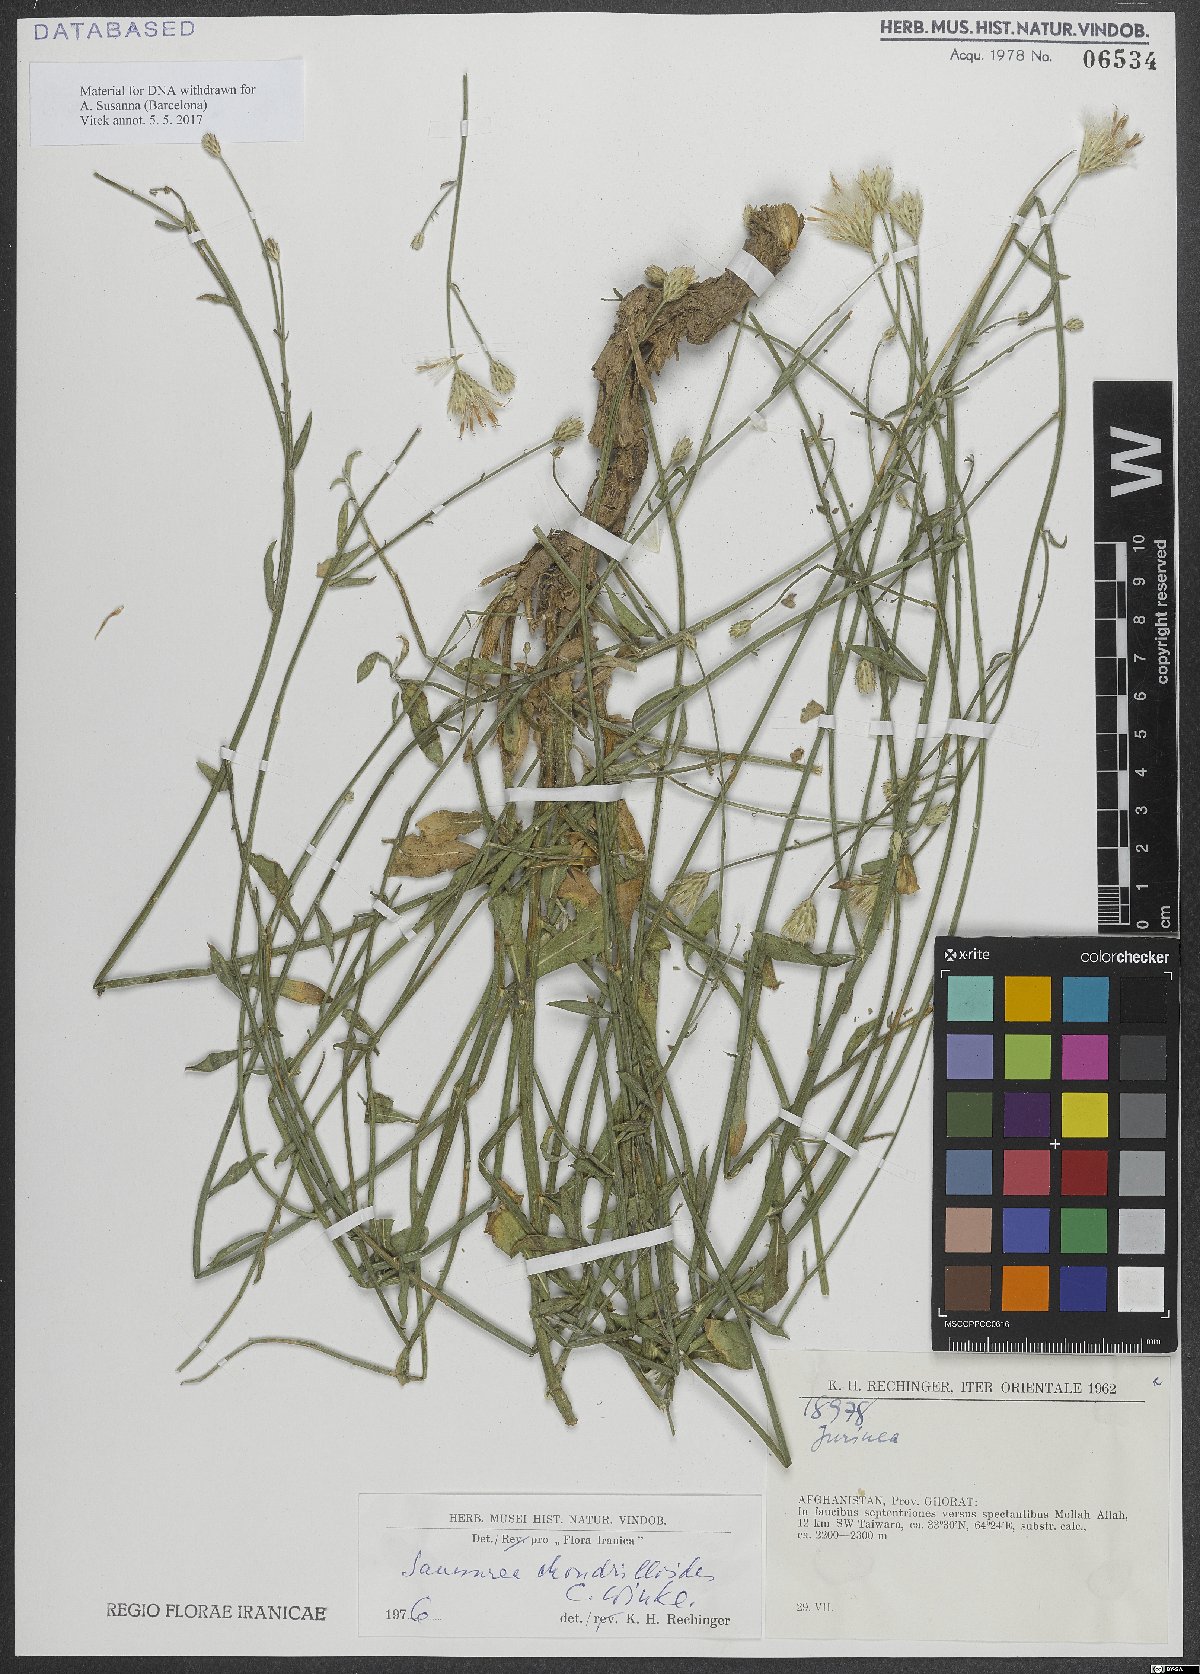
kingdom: Plantae
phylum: Tracheophyta
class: Magnoliopsida
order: Asterales
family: Asteraceae
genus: Saussurea
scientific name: Saussurea chondrilloides
